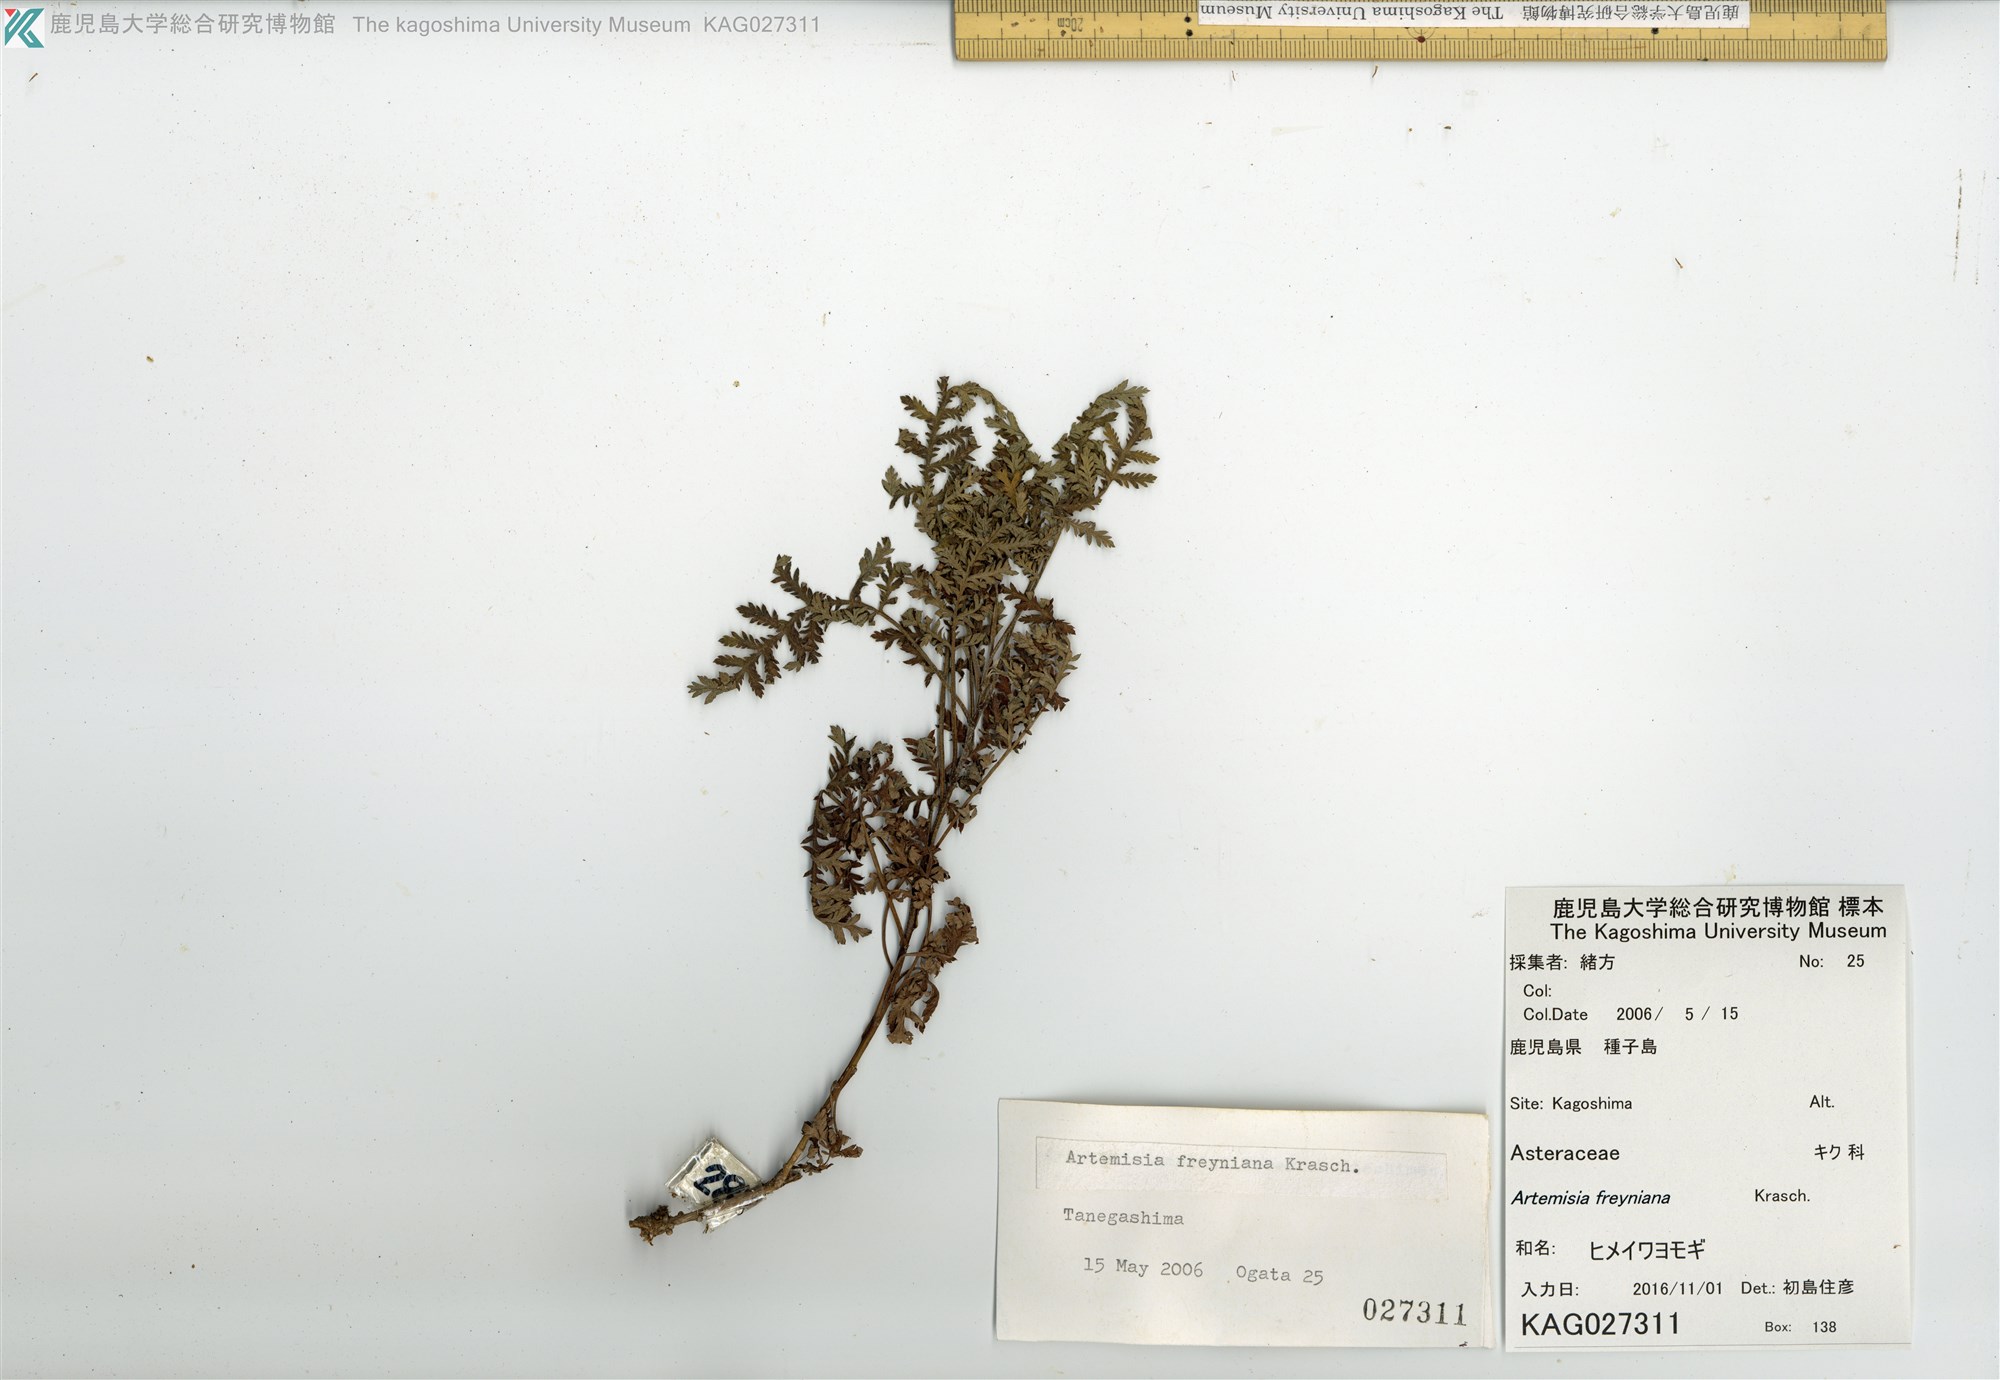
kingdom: Plantae
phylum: Tracheophyta
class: Magnoliopsida
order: Asterales
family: Asteraceae
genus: Artemisia
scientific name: Artemisia freyniana
